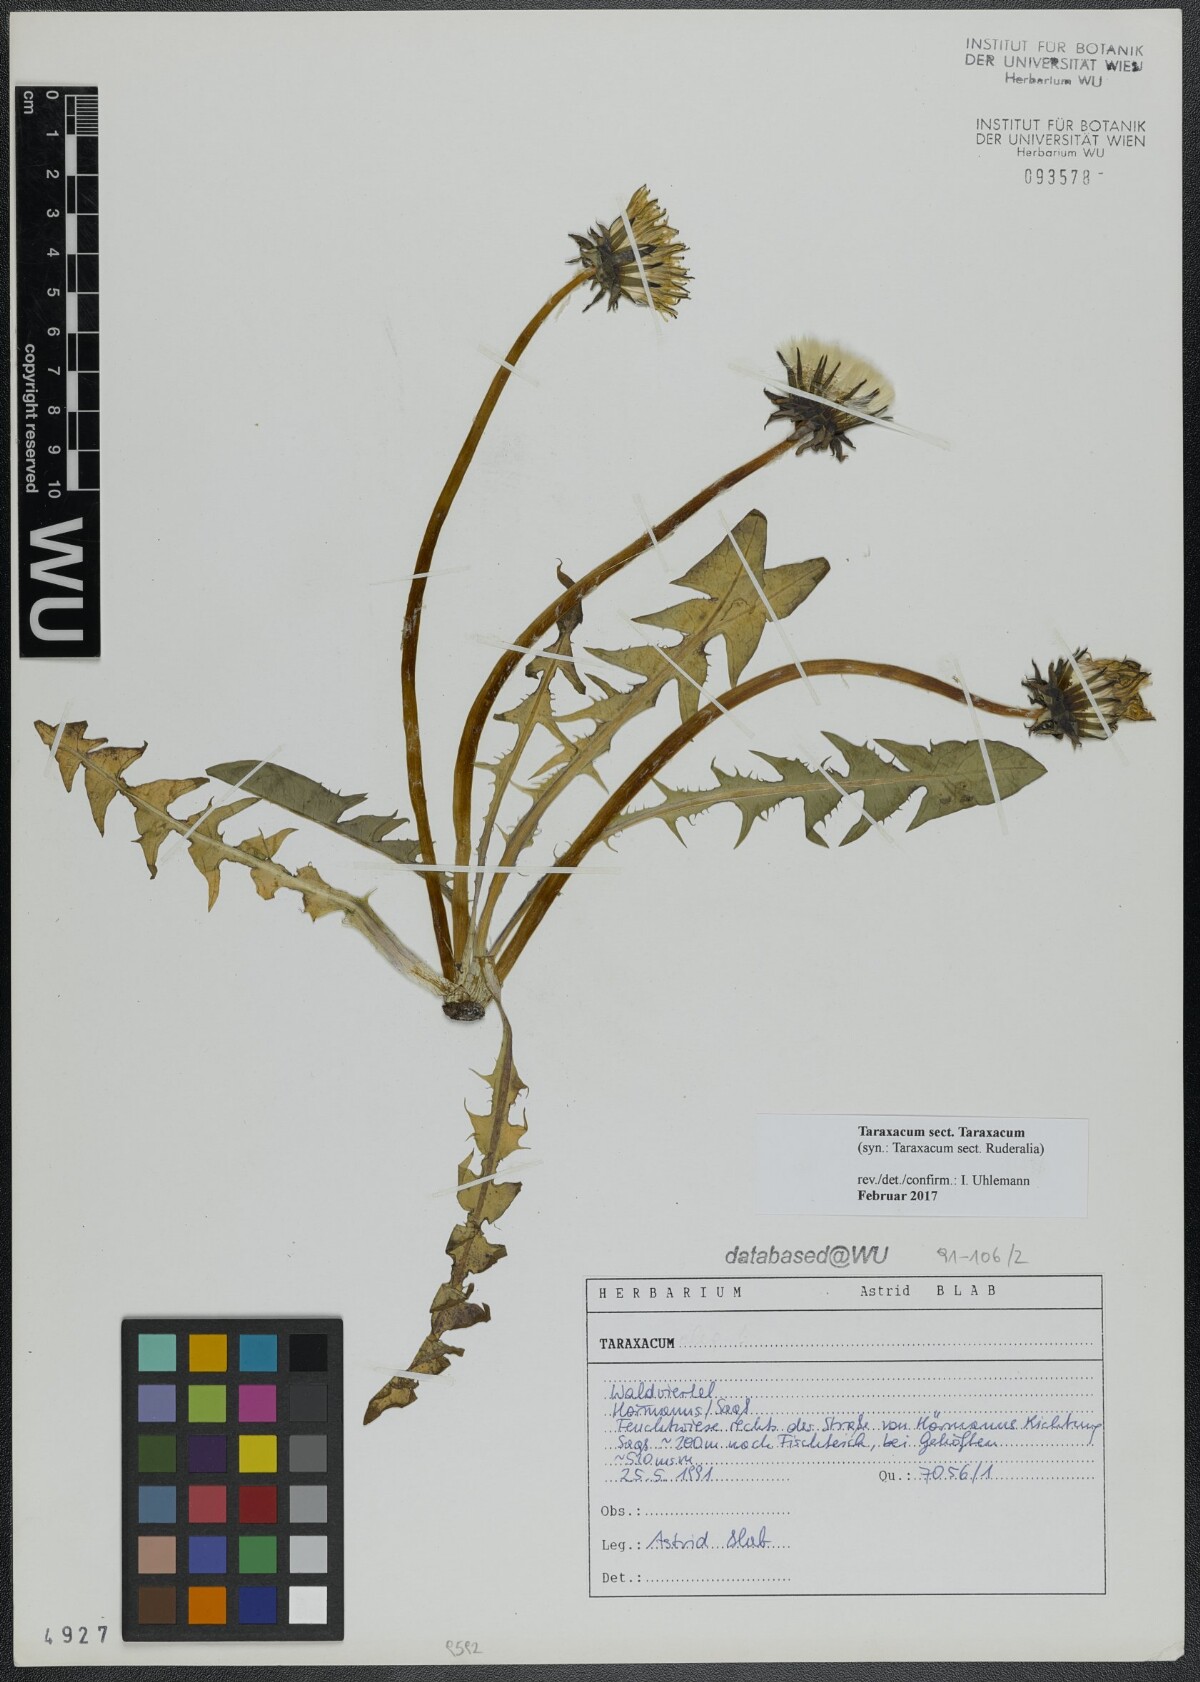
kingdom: Plantae
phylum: Tracheophyta
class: Magnoliopsida
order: Asterales
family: Asteraceae
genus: Taraxacum
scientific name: Taraxacum
